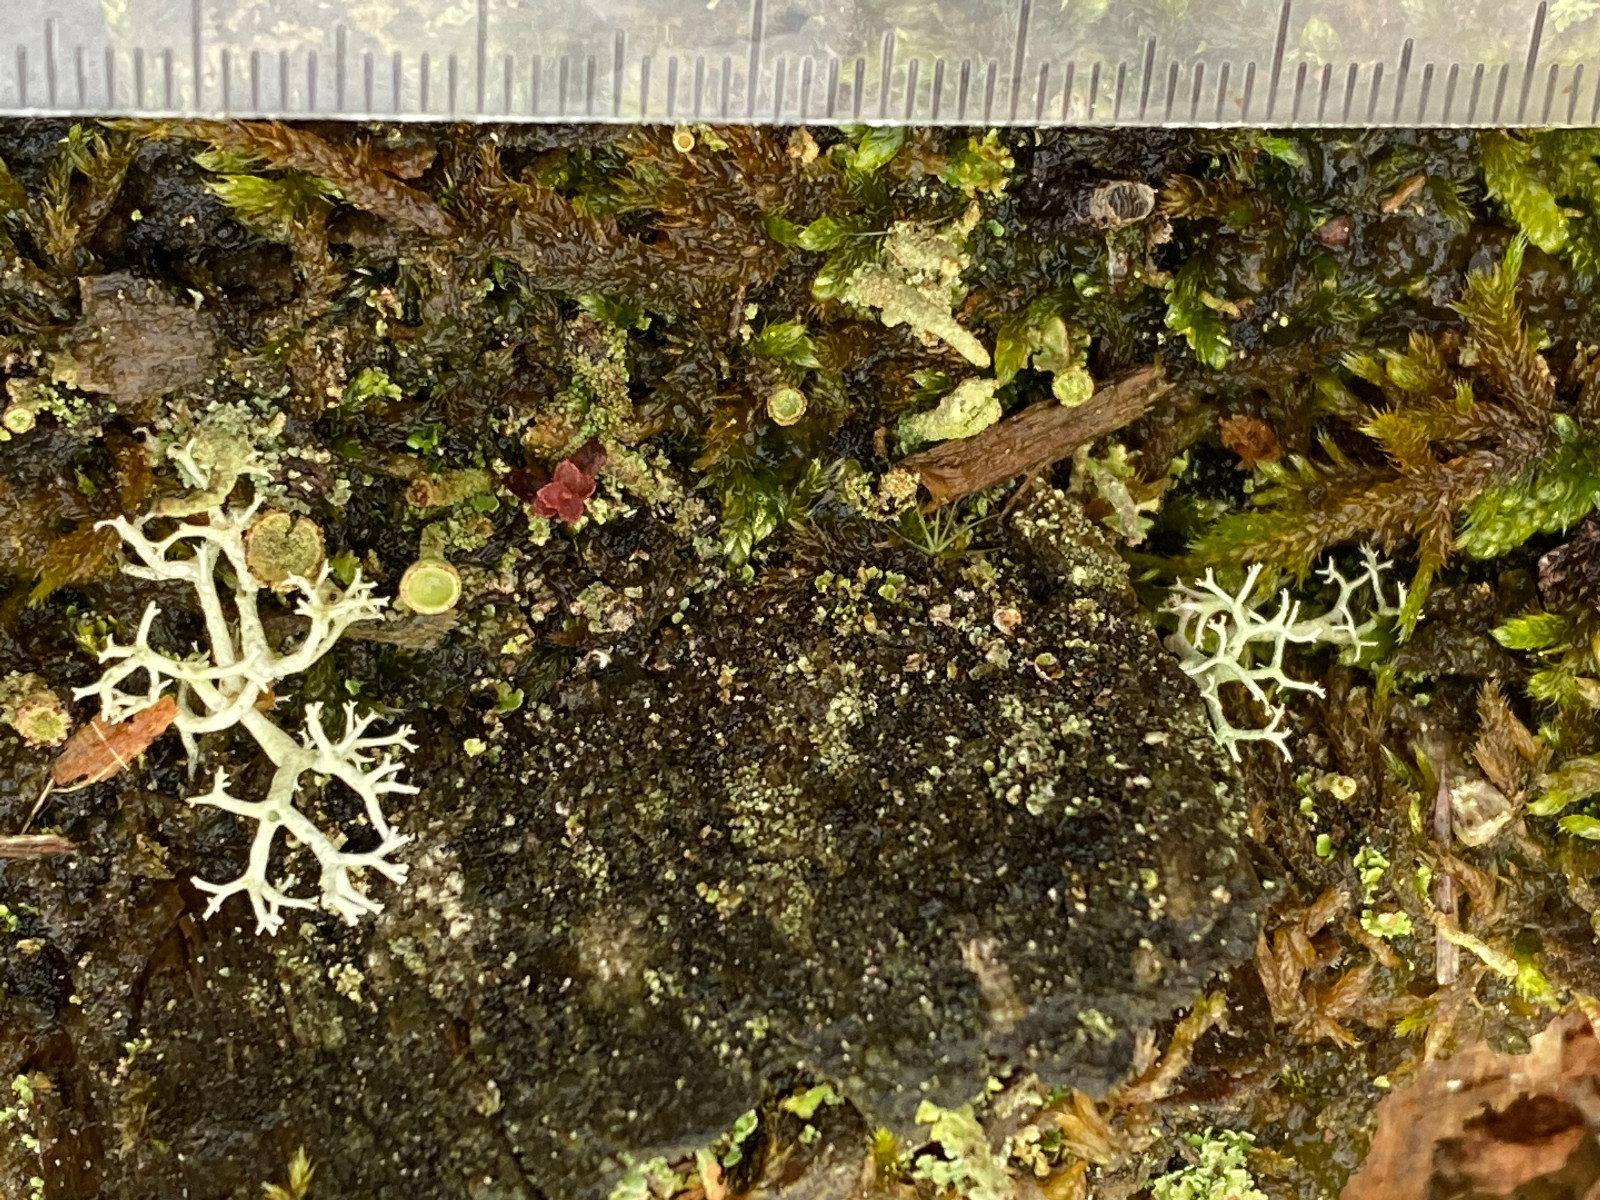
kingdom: Fungi
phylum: Ascomycota
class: Lecanoromycetes
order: Lecanorales
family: Cladoniaceae
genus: Cladonia
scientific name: Cladonia portentosa
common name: hede-rensdyrlav
